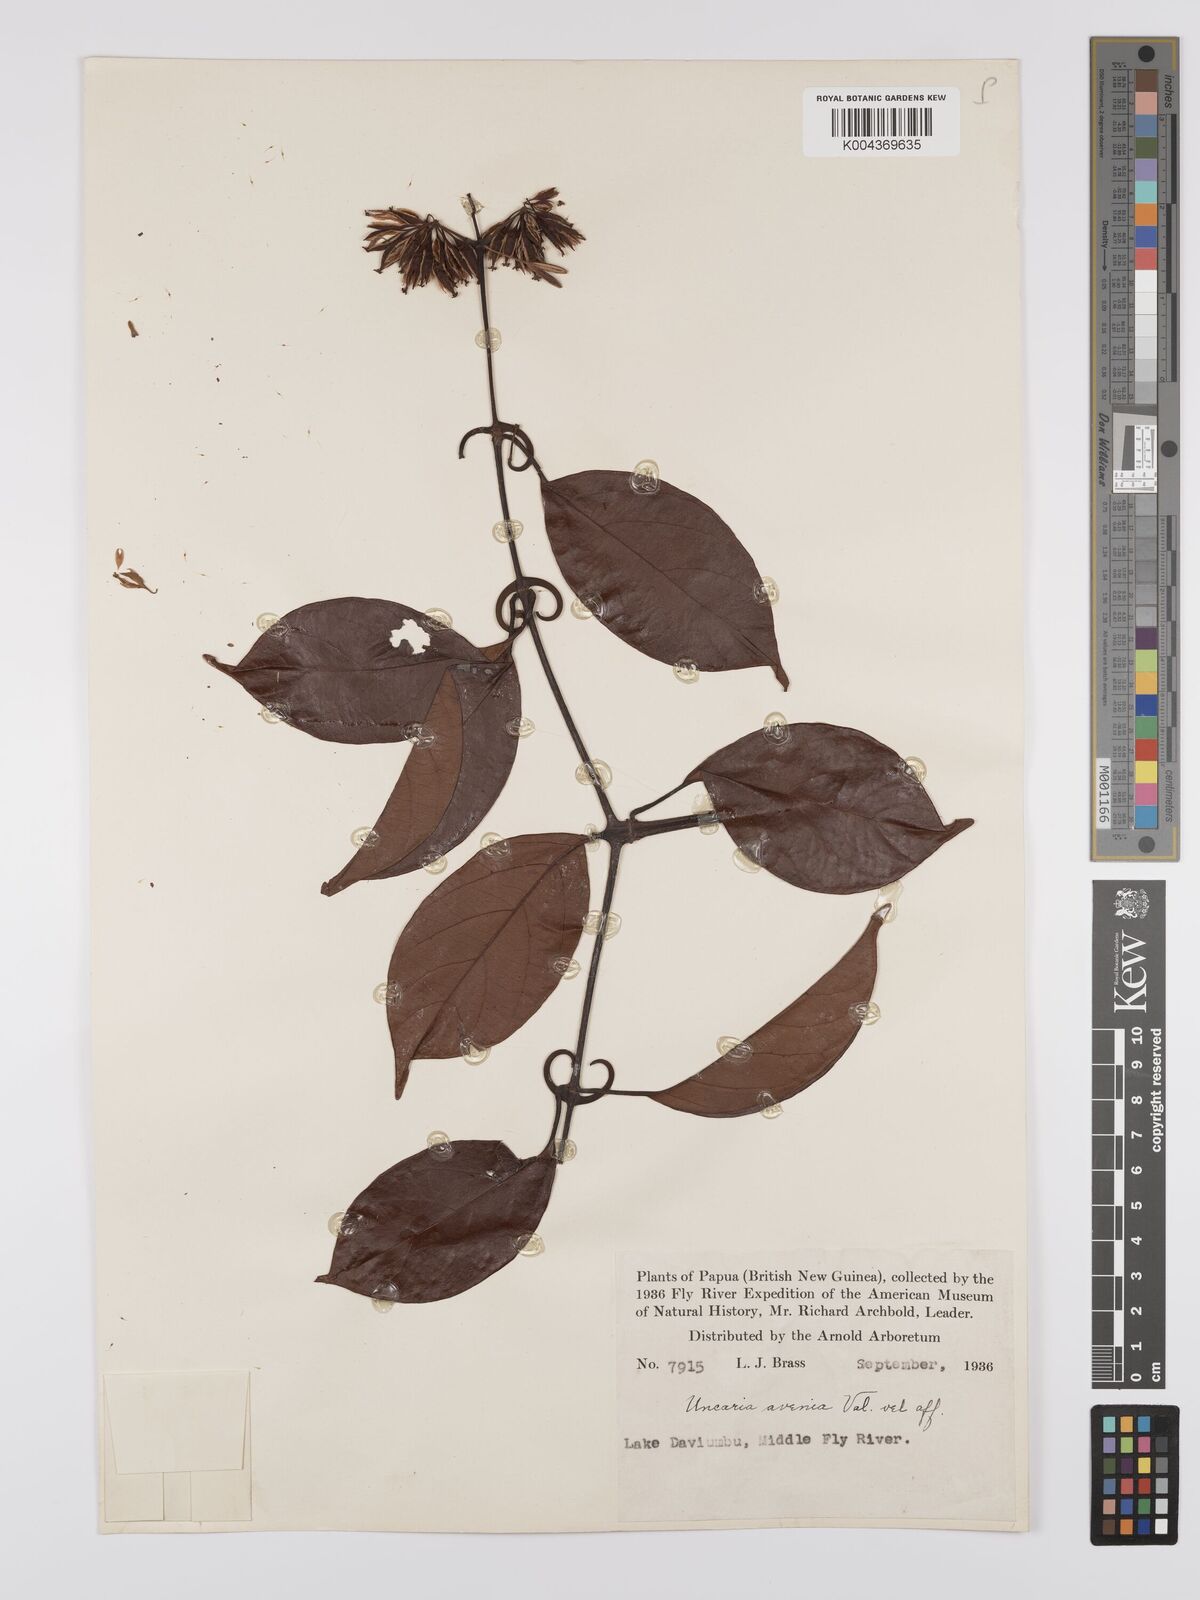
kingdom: Plantae
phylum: Tracheophyta
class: Magnoliopsida
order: Gentianales
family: Rubiaceae
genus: Uncaria
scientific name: Uncaria callophylla
